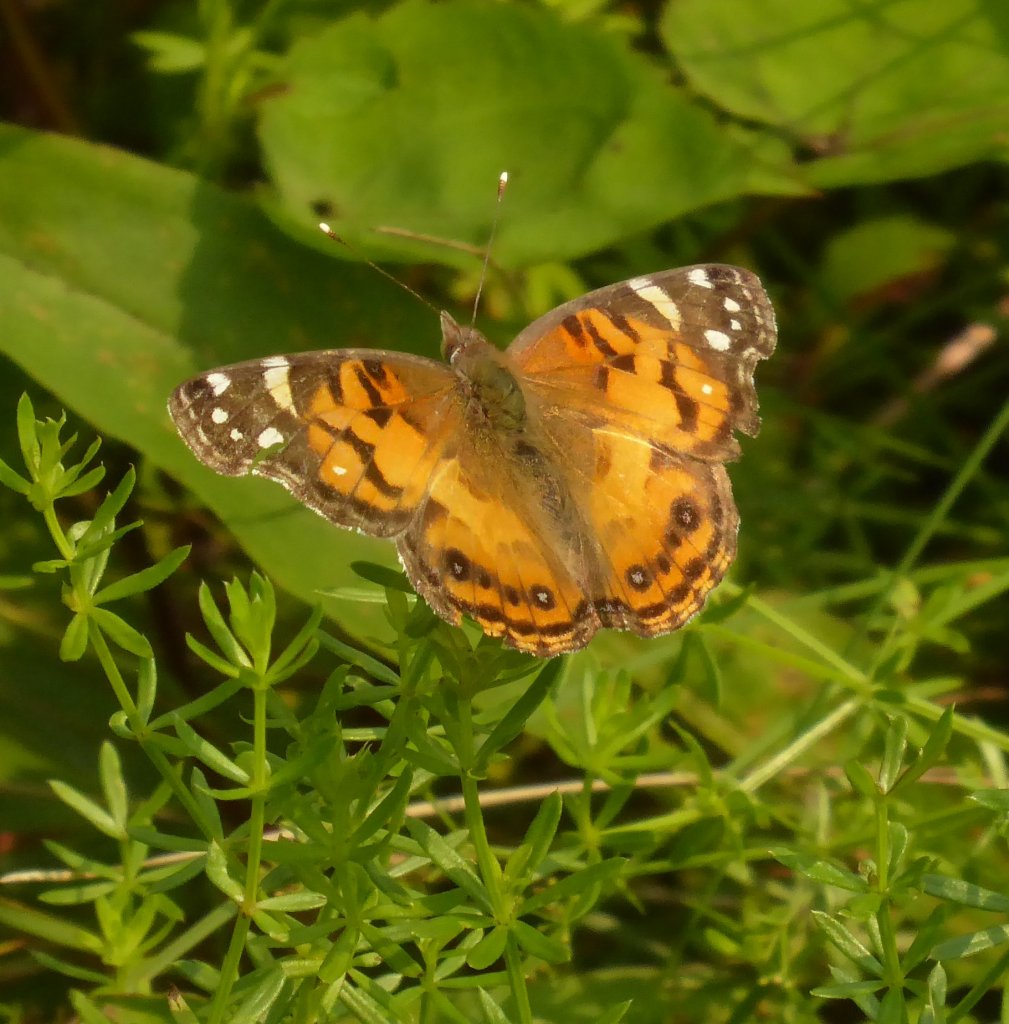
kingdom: Animalia
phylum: Arthropoda
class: Insecta
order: Lepidoptera
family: Nymphalidae
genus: Vanessa
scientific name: Vanessa virginiensis
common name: American Lady
